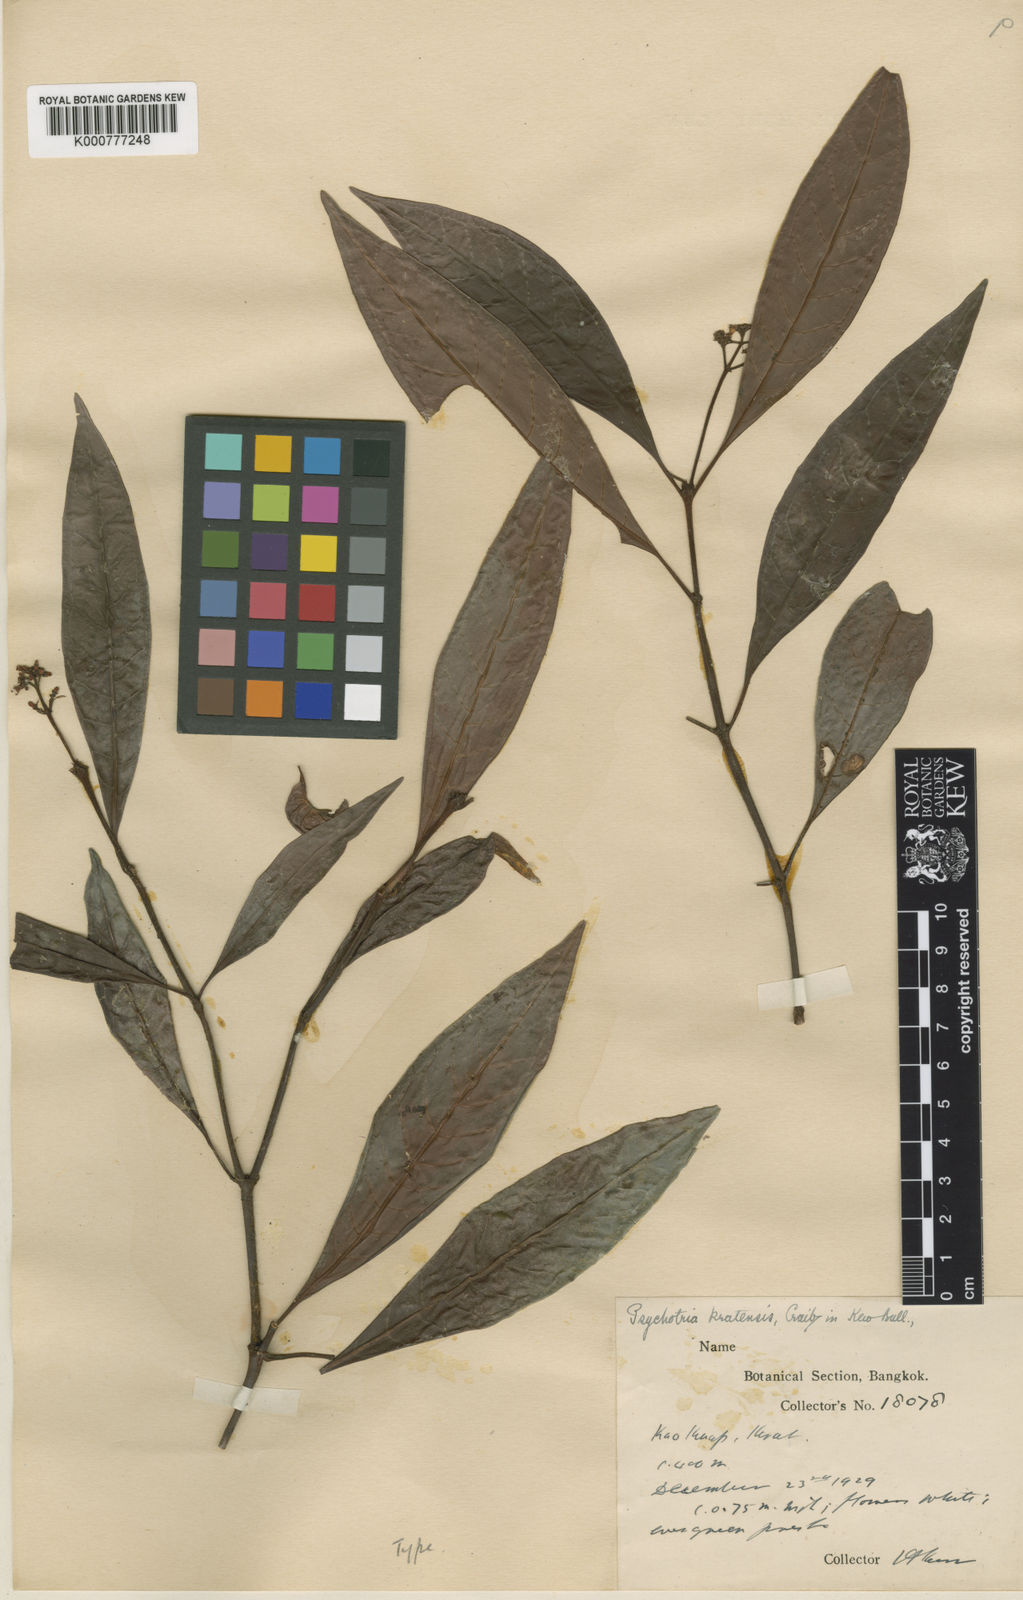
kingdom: Plantae
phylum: Tracheophyta
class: Magnoliopsida
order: Gentianales
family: Rubiaceae
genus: Psychotria
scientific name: Psychotria calocarpa
